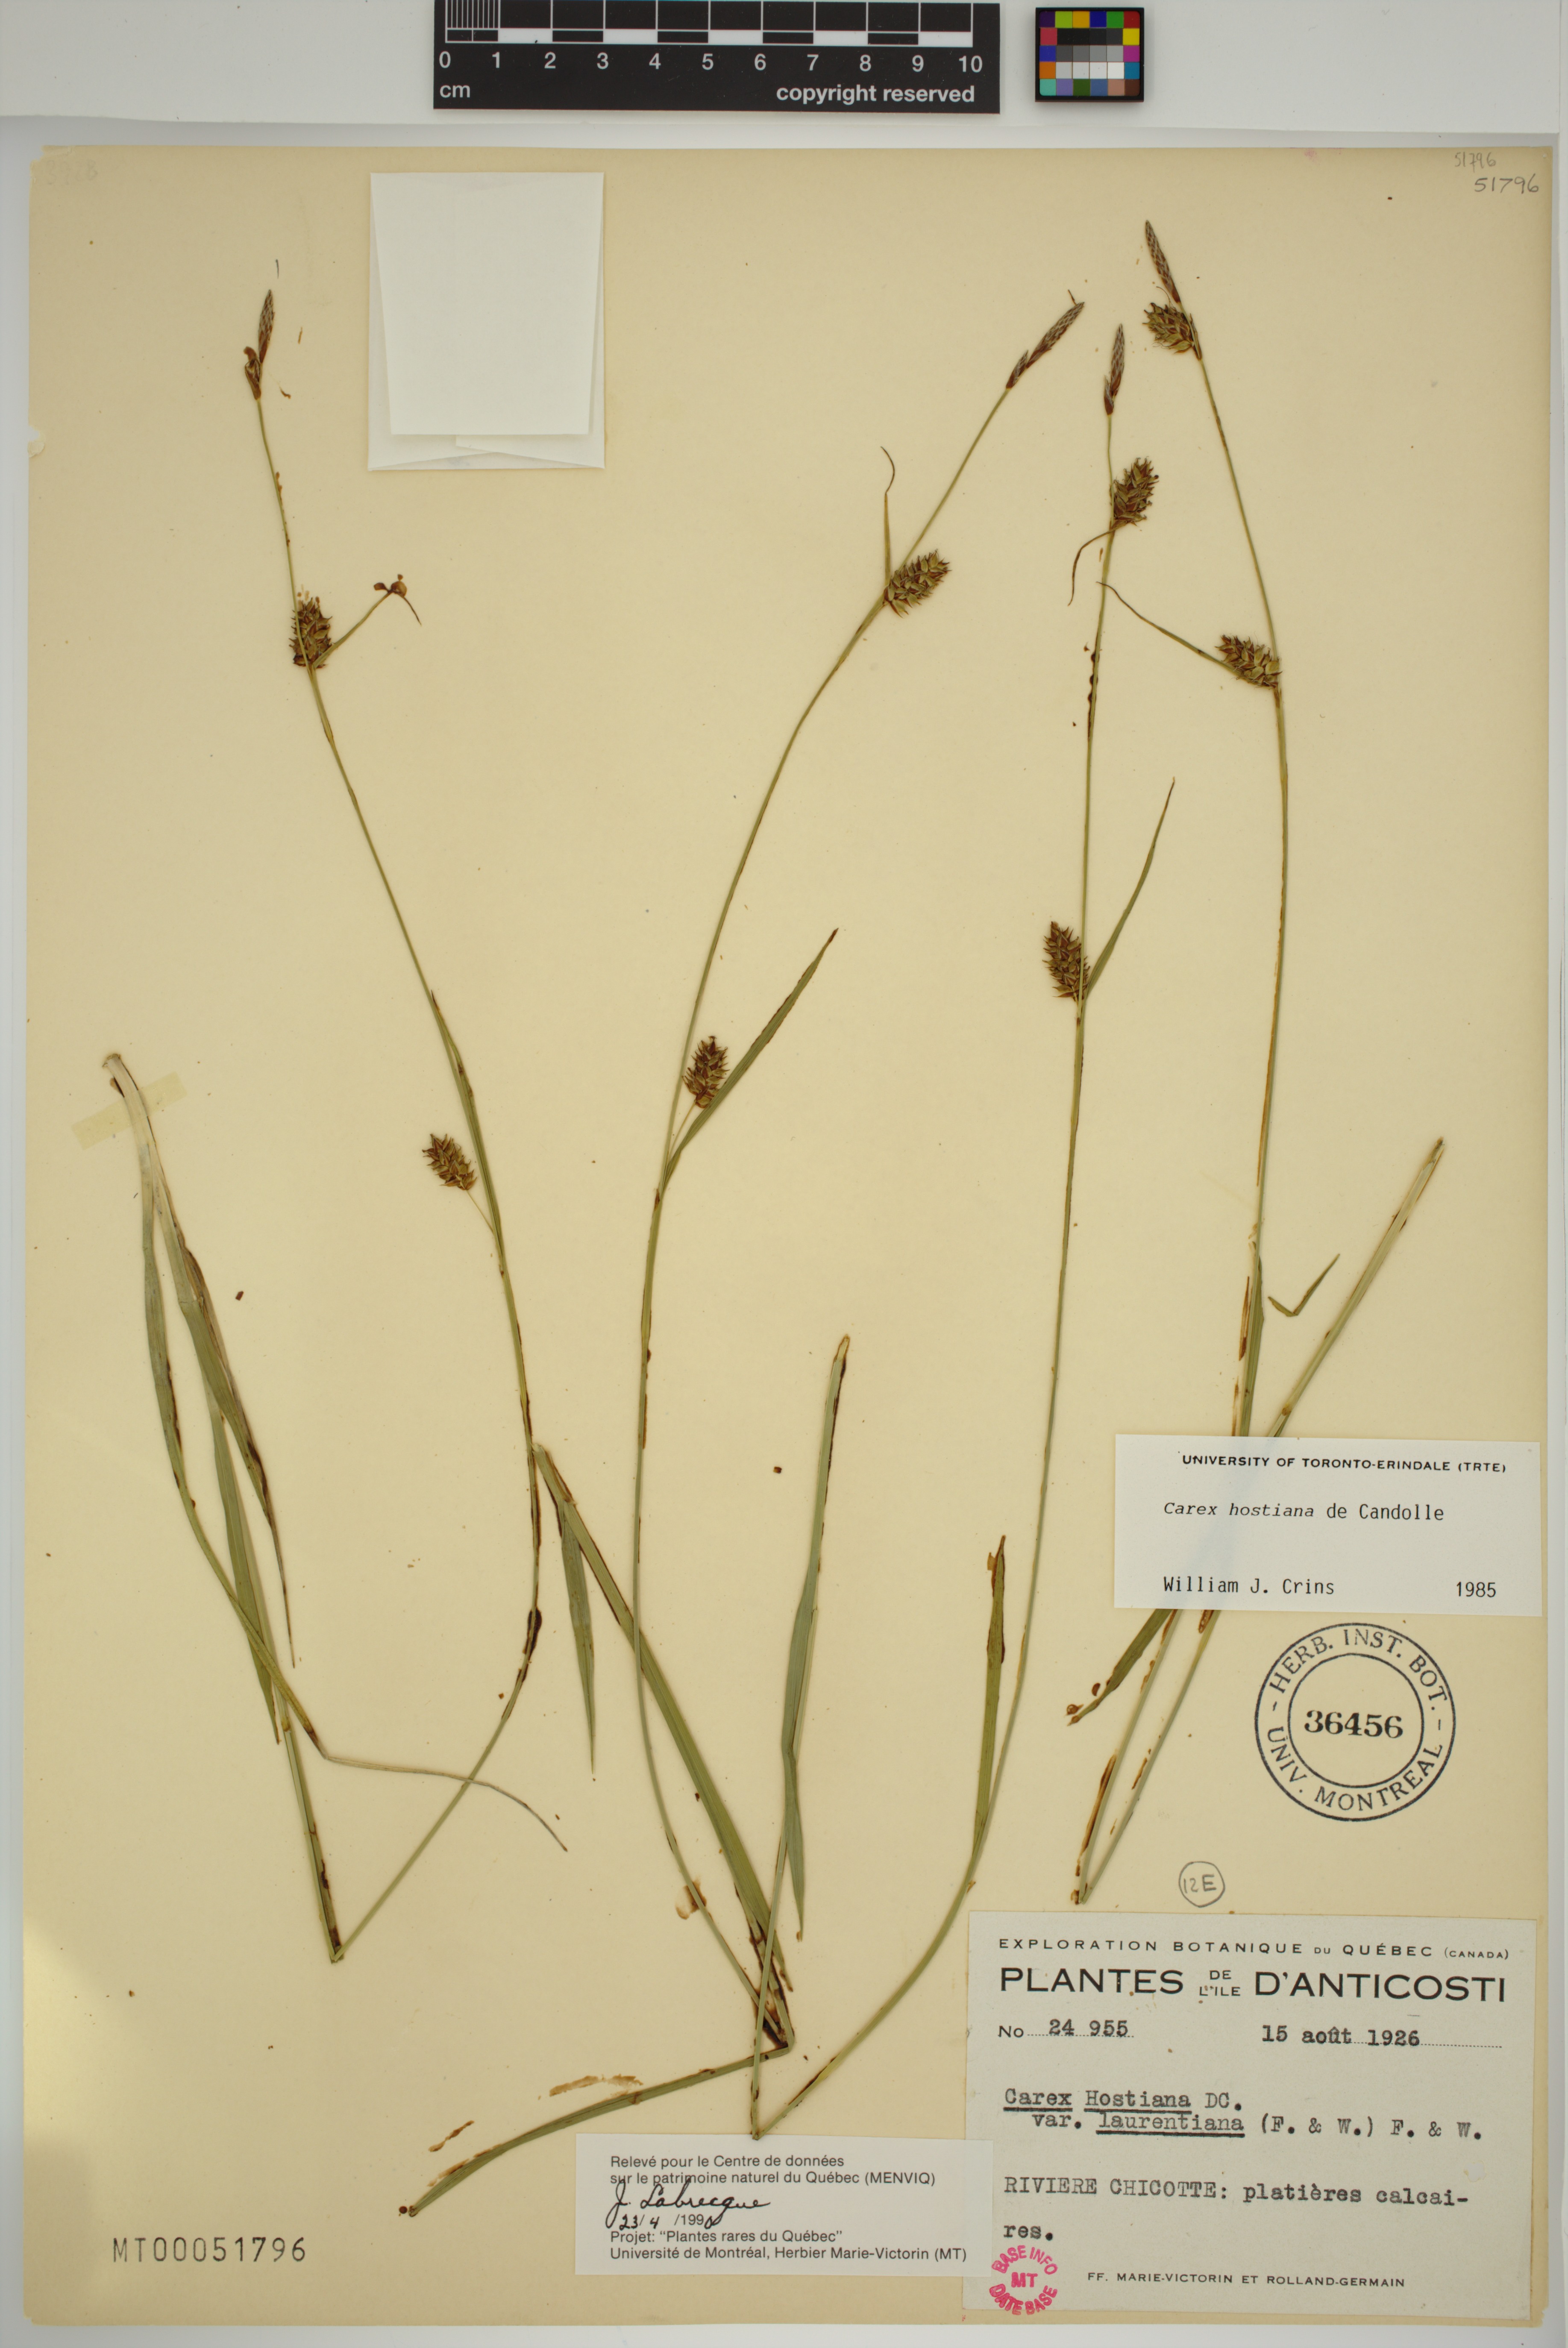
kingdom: Plantae
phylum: Tracheophyta
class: Liliopsida
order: Poales
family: Cyperaceae
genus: Carex
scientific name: Carex hostiana
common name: Tawny sedge
